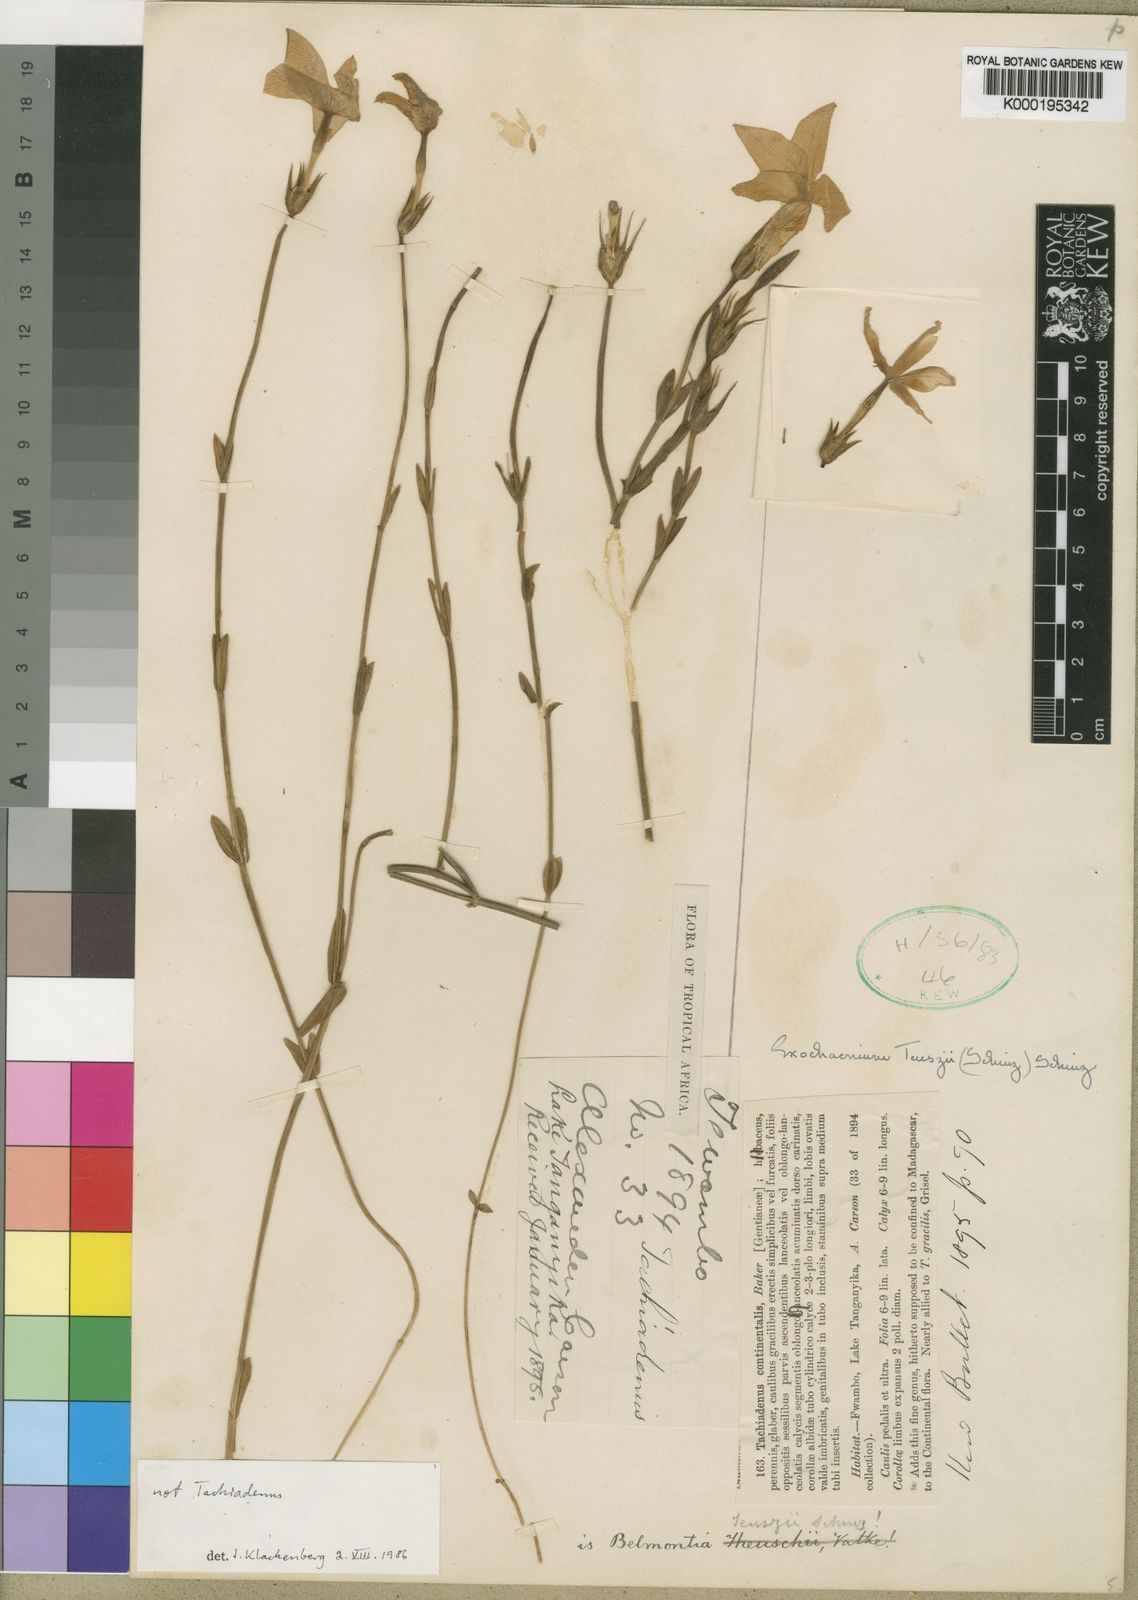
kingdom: Plantae
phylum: Tracheophyta
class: Magnoliopsida
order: Gentianales
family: Gentianaceae
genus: Exochaenium
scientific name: Exochaenium teuszii
